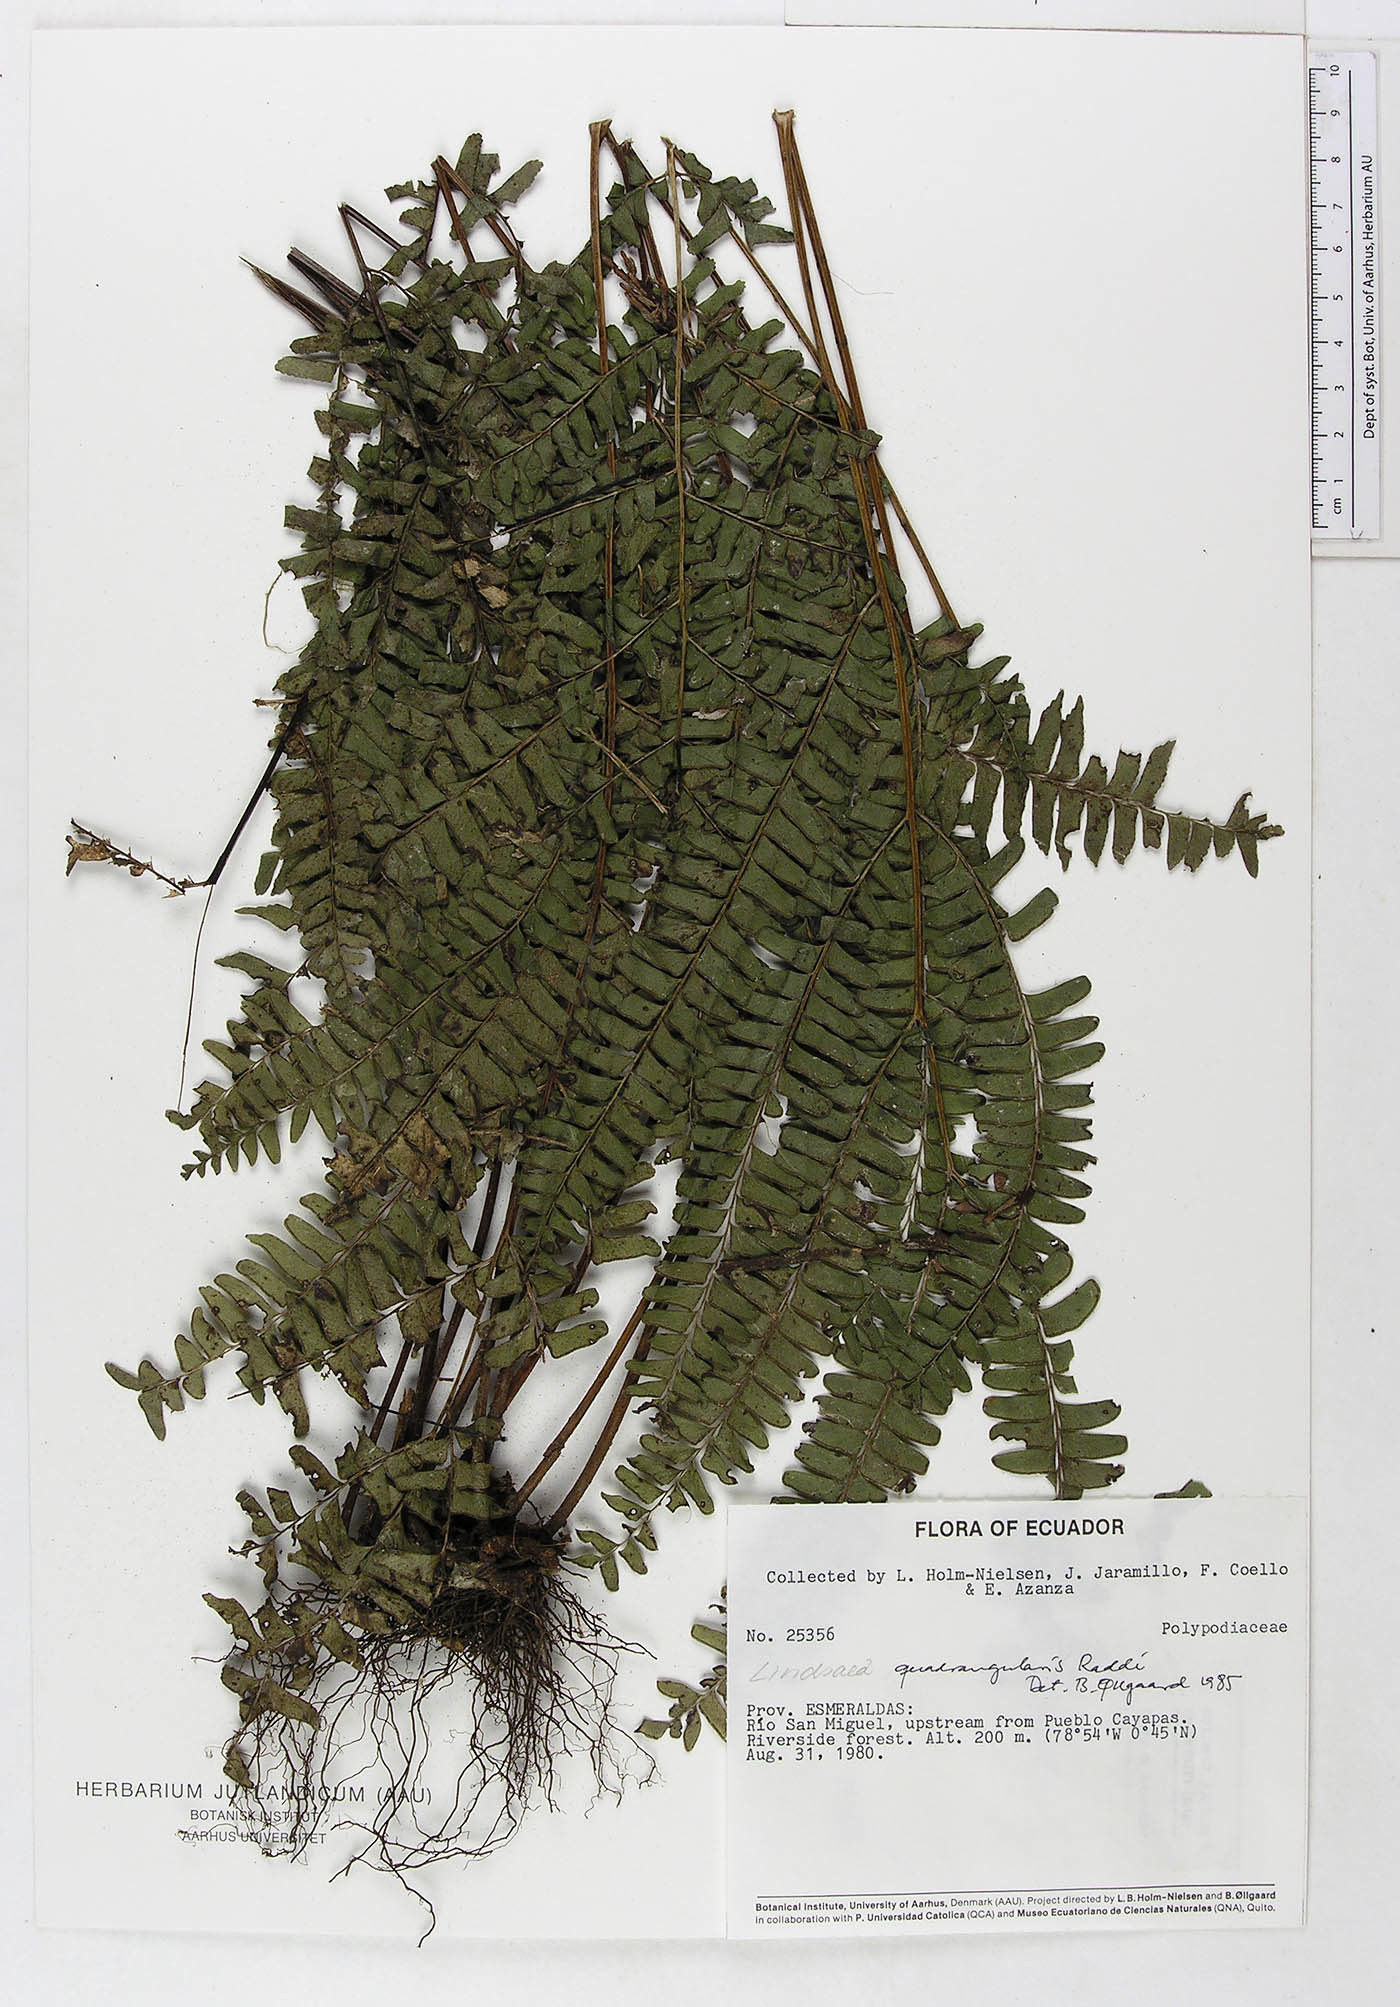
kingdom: Plantae
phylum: Tracheophyta
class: Polypodiopsida
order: Polypodiales
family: Lindsaeaceae
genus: Lindsaea
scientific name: Lindsaea quadrangularis
